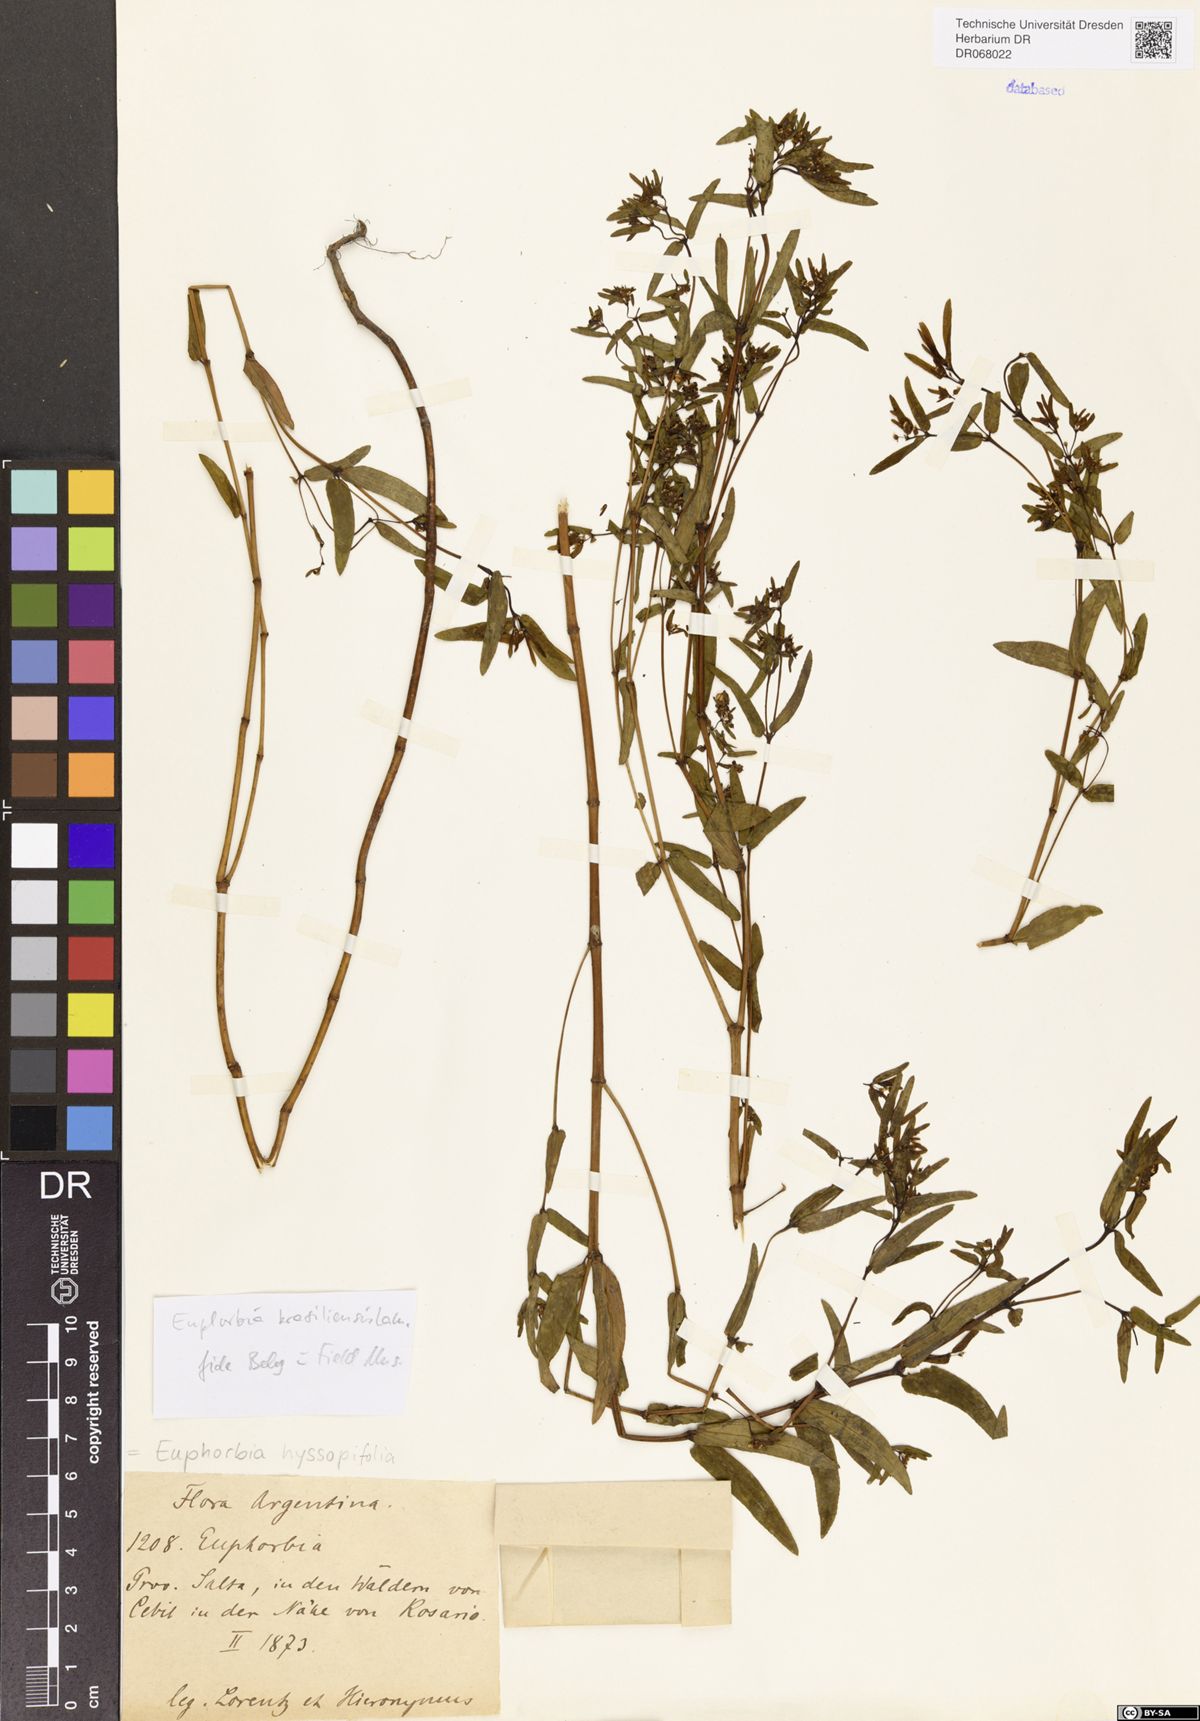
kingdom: Plantae
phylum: Tracheophyta
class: Magnoliopsida
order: Malpighiales
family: Euphorbiaceae
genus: Euphorbia
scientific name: Euphorbia hyssopifolia
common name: Hyssopleaf sandmat
